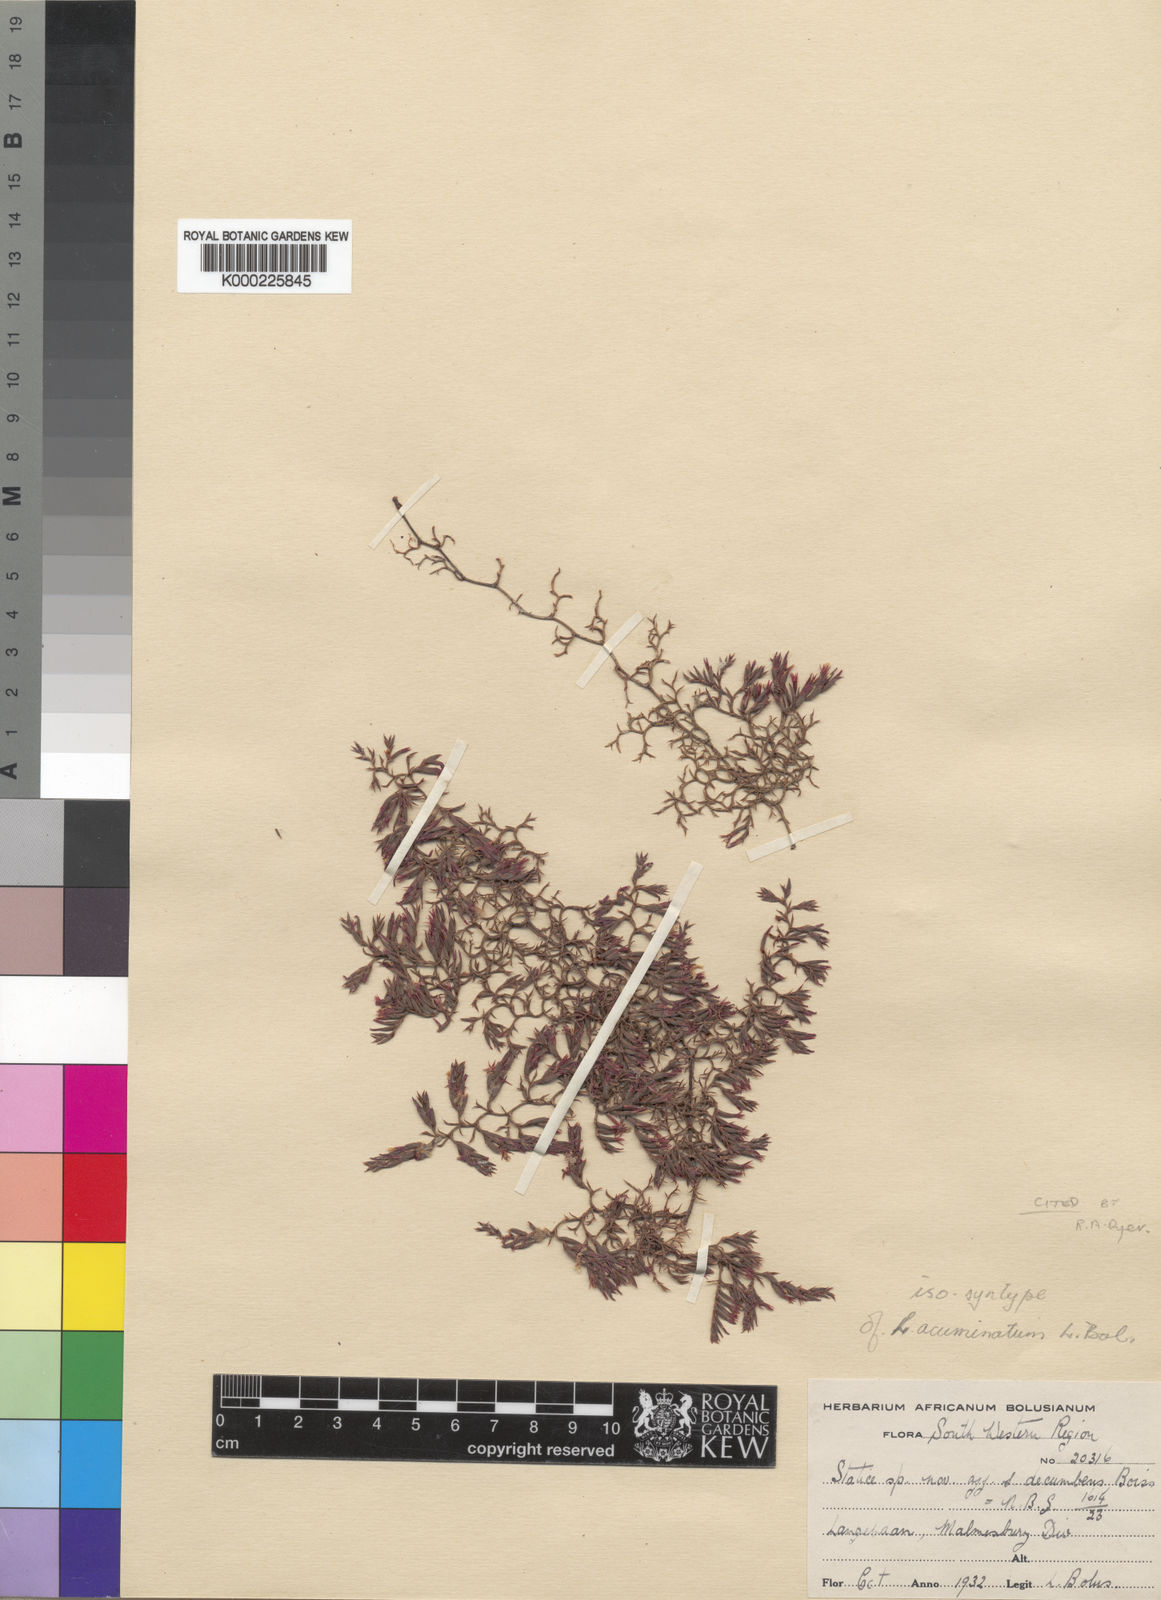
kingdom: Plantae
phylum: Tracheophyta
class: Magnoliopsida
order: Caryophyllales
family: Plumbaginaceae
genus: Limonium
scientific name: Limonium acuminatum
